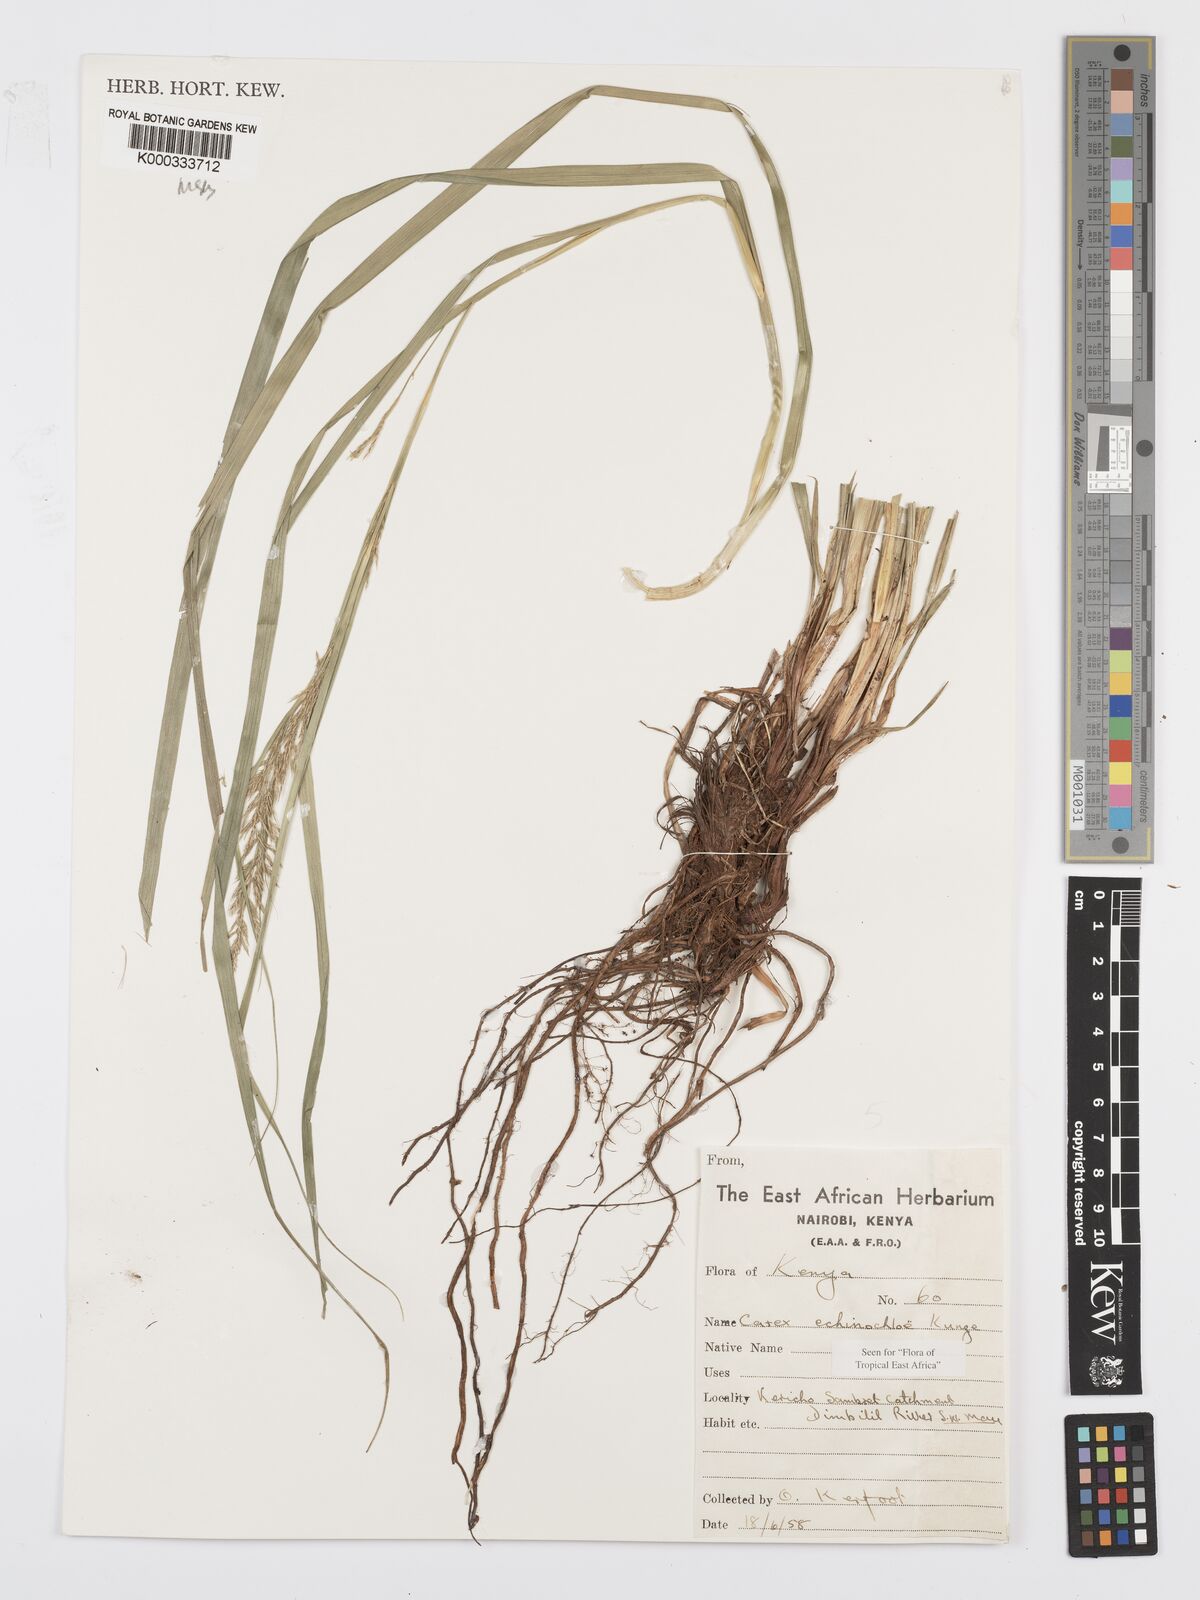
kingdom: Plantae
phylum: Tracheophyta
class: Liliopsida
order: Poales
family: Cyperaceae
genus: Carex
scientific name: Carex echinochloe
